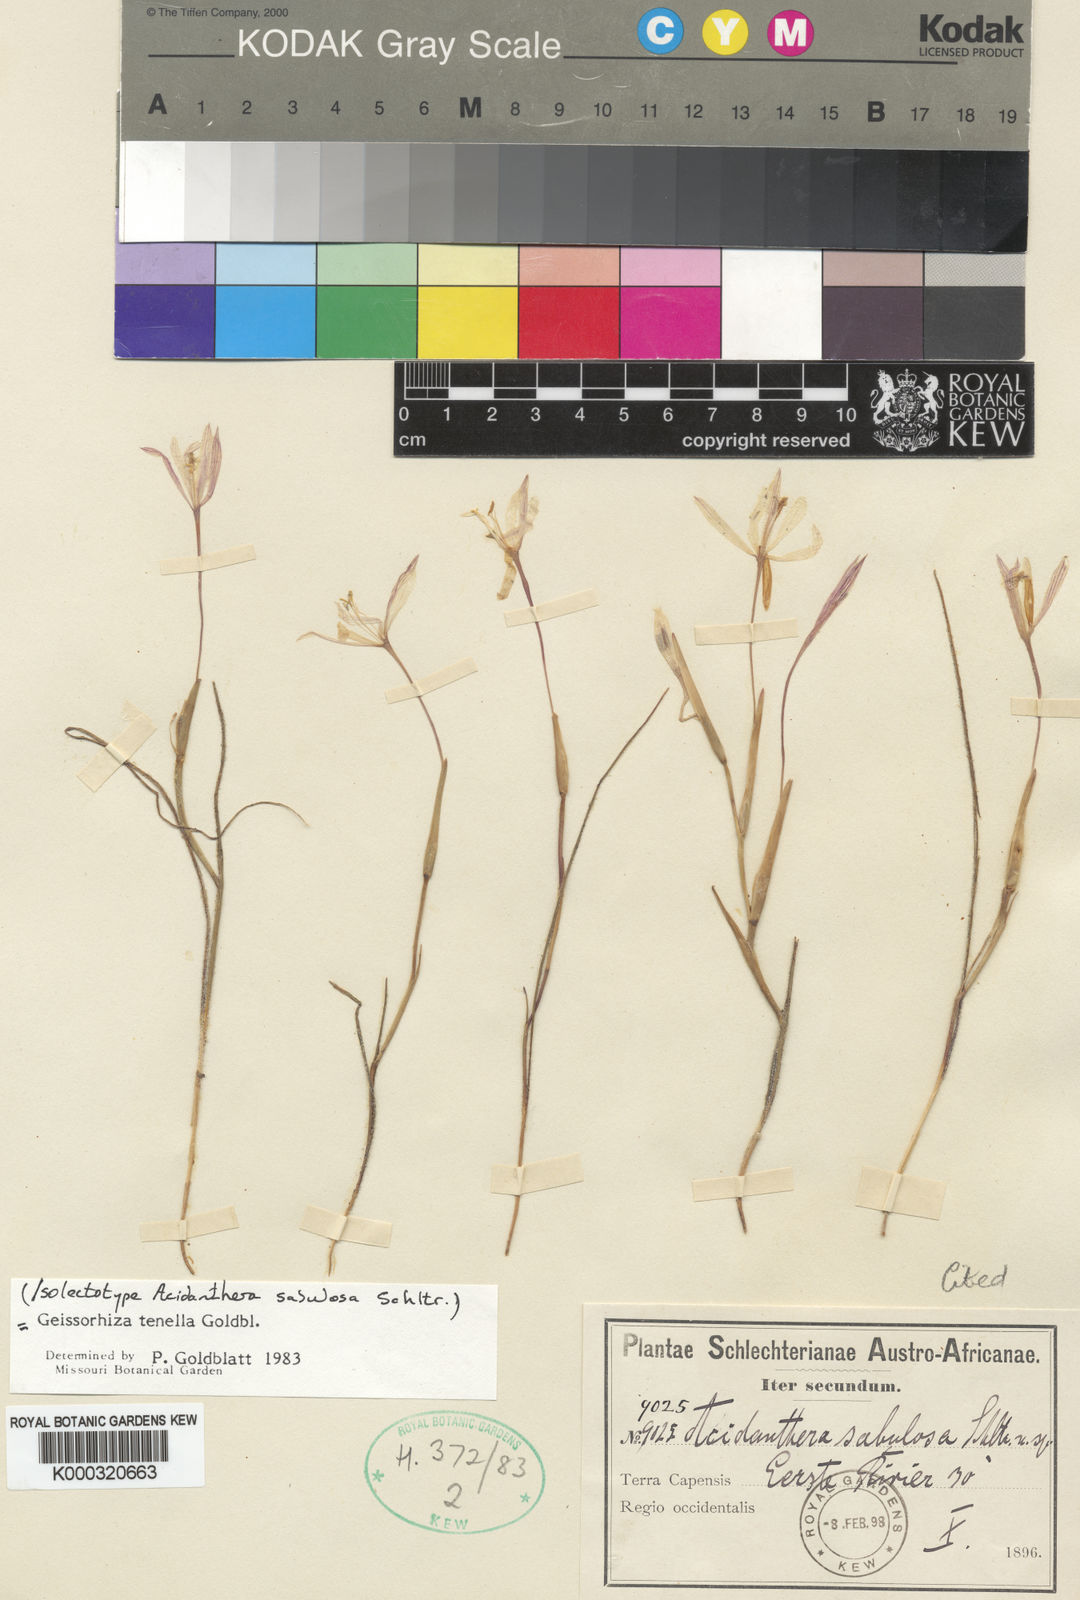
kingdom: Plantae
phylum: Tracheophyta
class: Liliopsida
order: Asparagales
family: Iridaceae
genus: Geissorhiza
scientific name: Geissorhiza tenella
